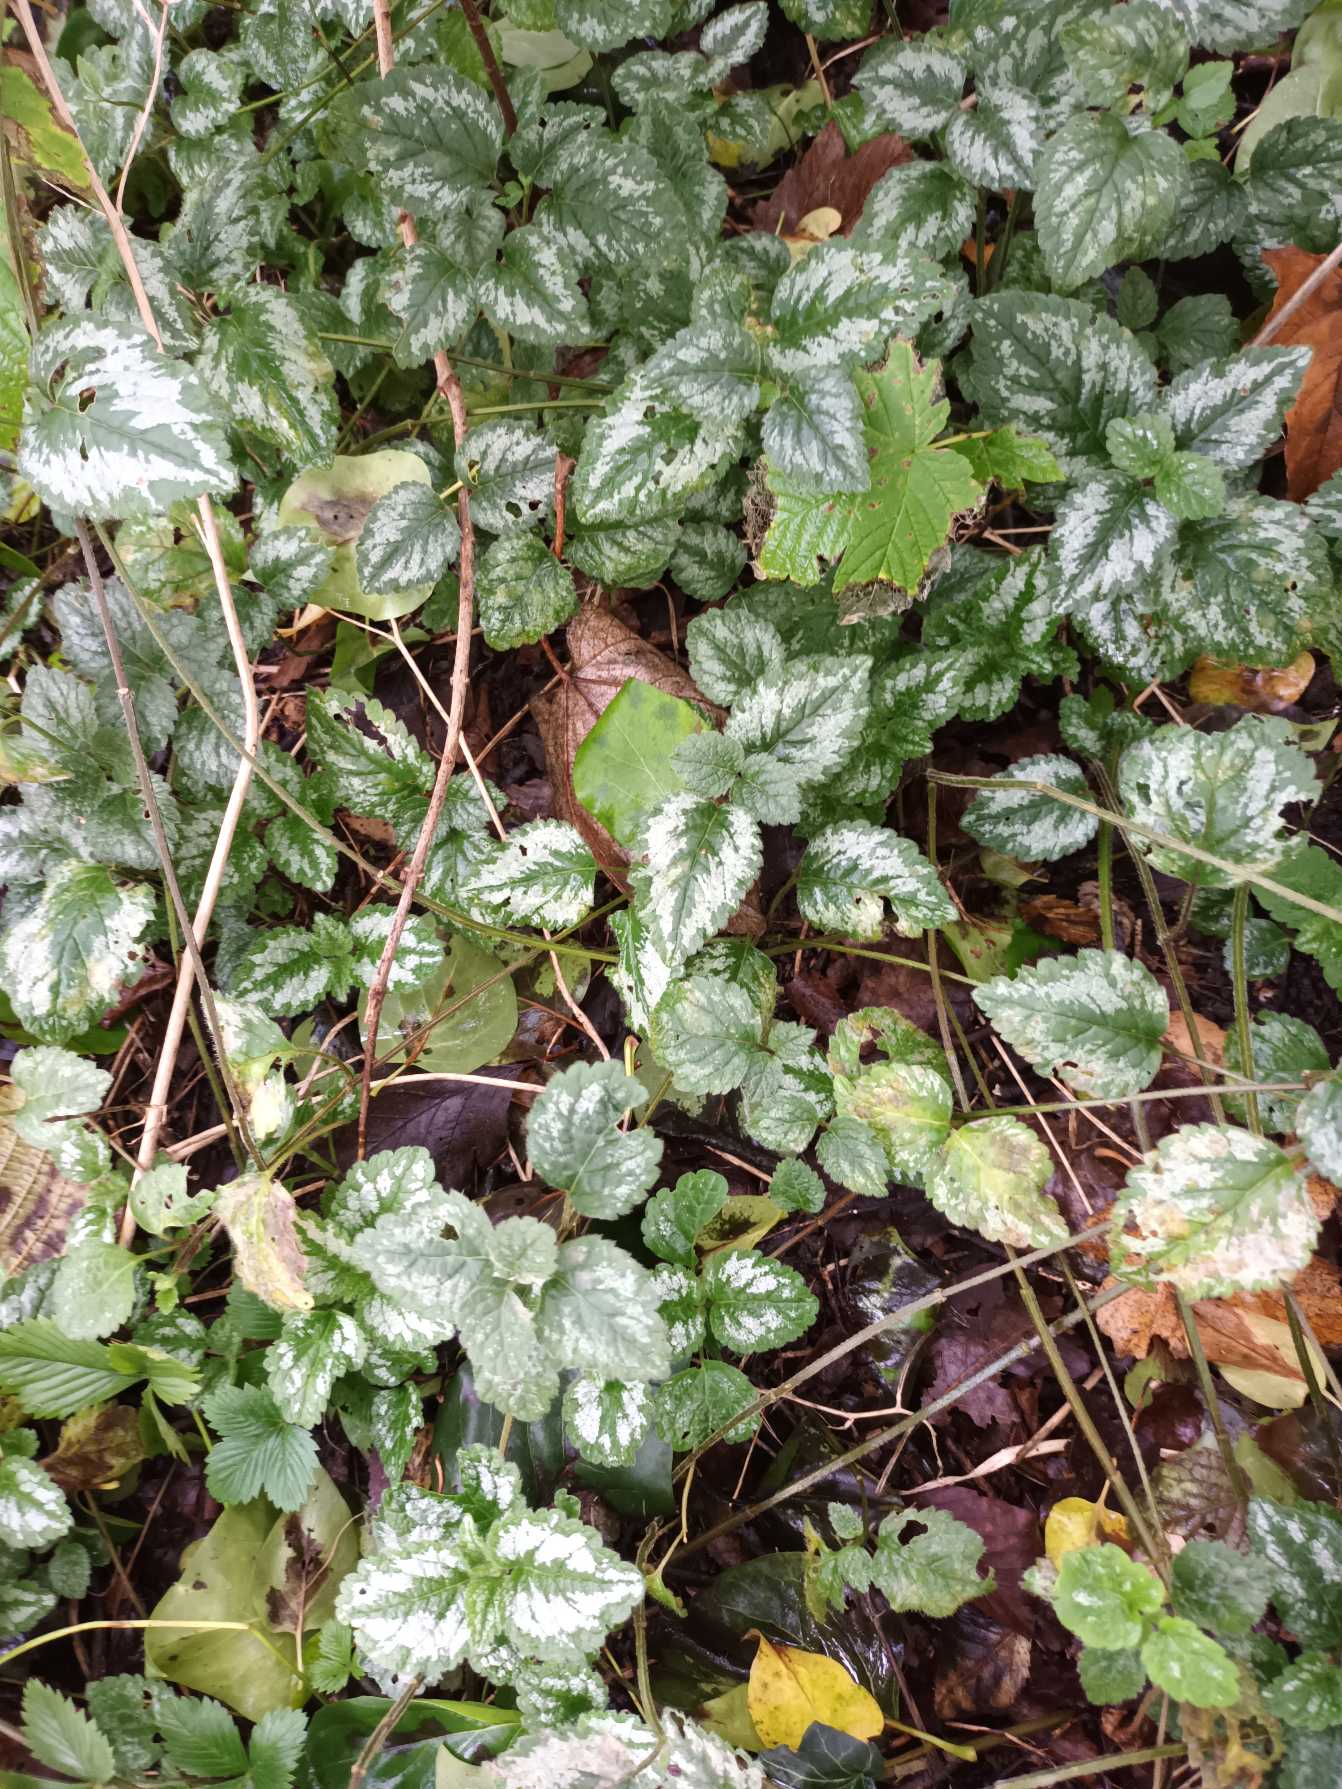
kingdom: Plantae
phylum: Tracheophyta
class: Magnoliopsida
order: Lamiales
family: Lamiaceae
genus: Lamium
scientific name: Lamium galeobdolon
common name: Have-guldnælde
